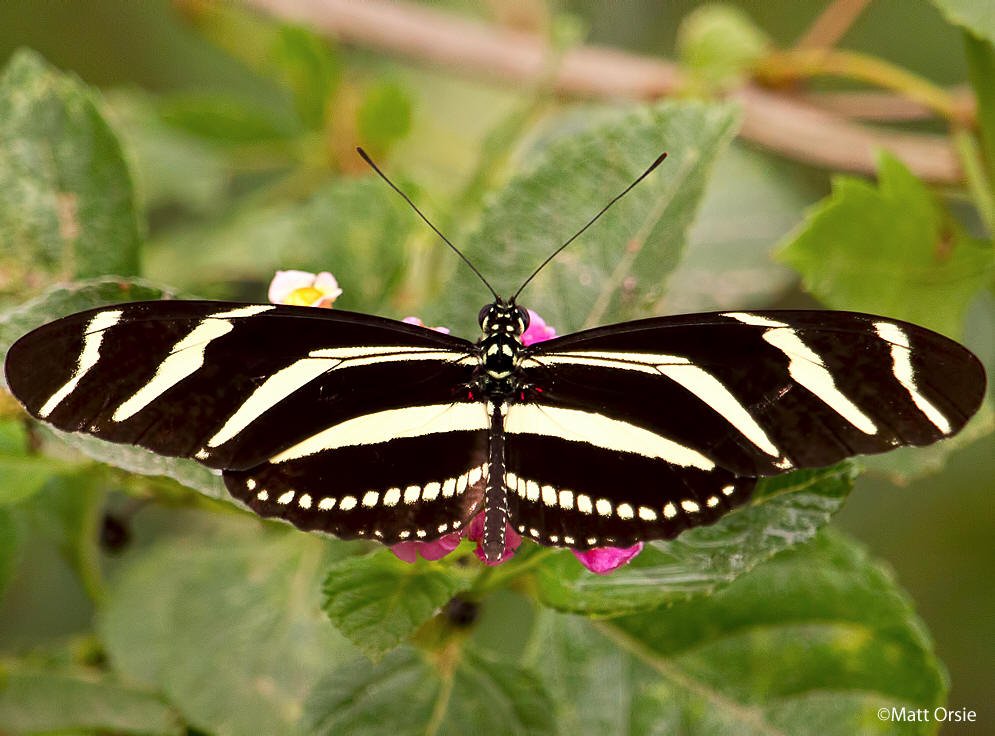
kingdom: Animalia
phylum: Arthropoda
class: Insecta
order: Lepidoptera
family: Nymphalidae
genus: Heliconius
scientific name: Heliconius charithonia
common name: Zebra Longwing
